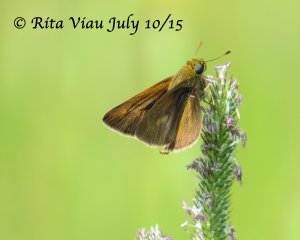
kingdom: Animalia
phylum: Arthropoda
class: Insecta
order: Lepidoptera
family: Hesperiidae
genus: Polites
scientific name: Polites themistocles
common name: Tawny-edged Skipper
